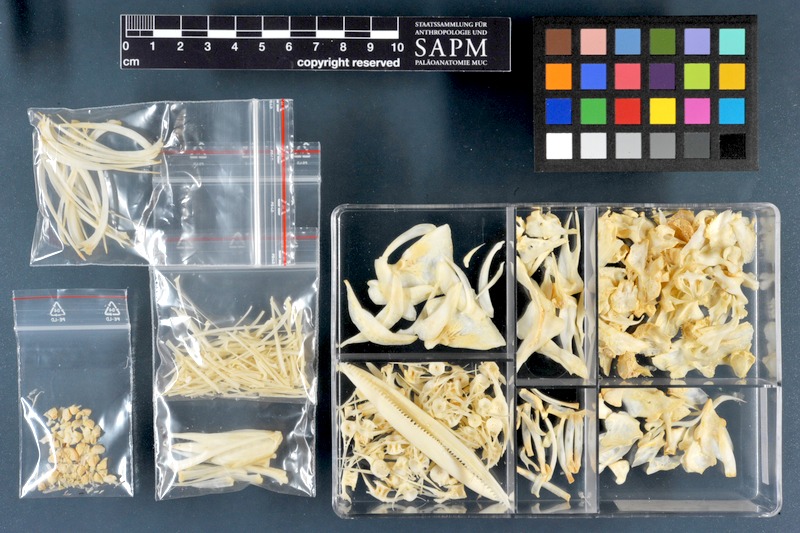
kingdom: Animalia
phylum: Chordata
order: Cypriniformes
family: Cyprinidae
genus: Luciobarbus
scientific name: Luciobarbus kersin
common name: Berzem
